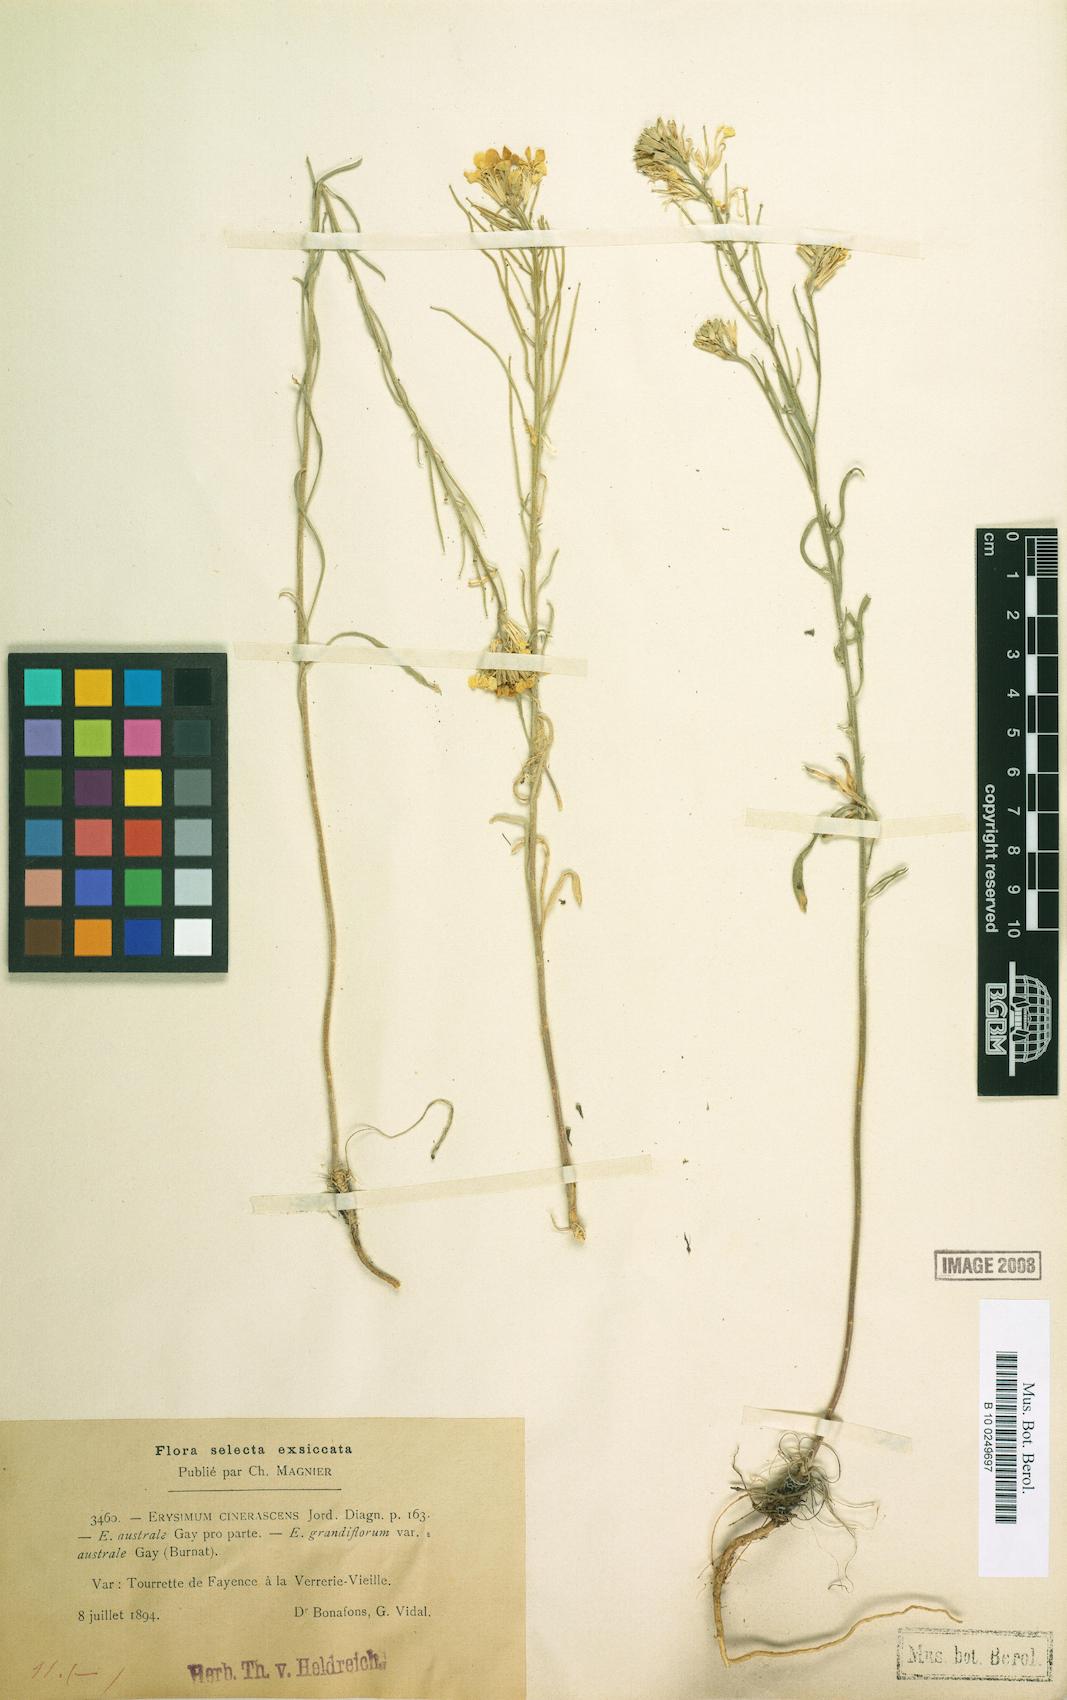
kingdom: Plantae
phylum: Tracheophyta
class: Magnoliopsida
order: Brassicales
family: Brassicaceae
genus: Erysimum
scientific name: Erysimum confine
